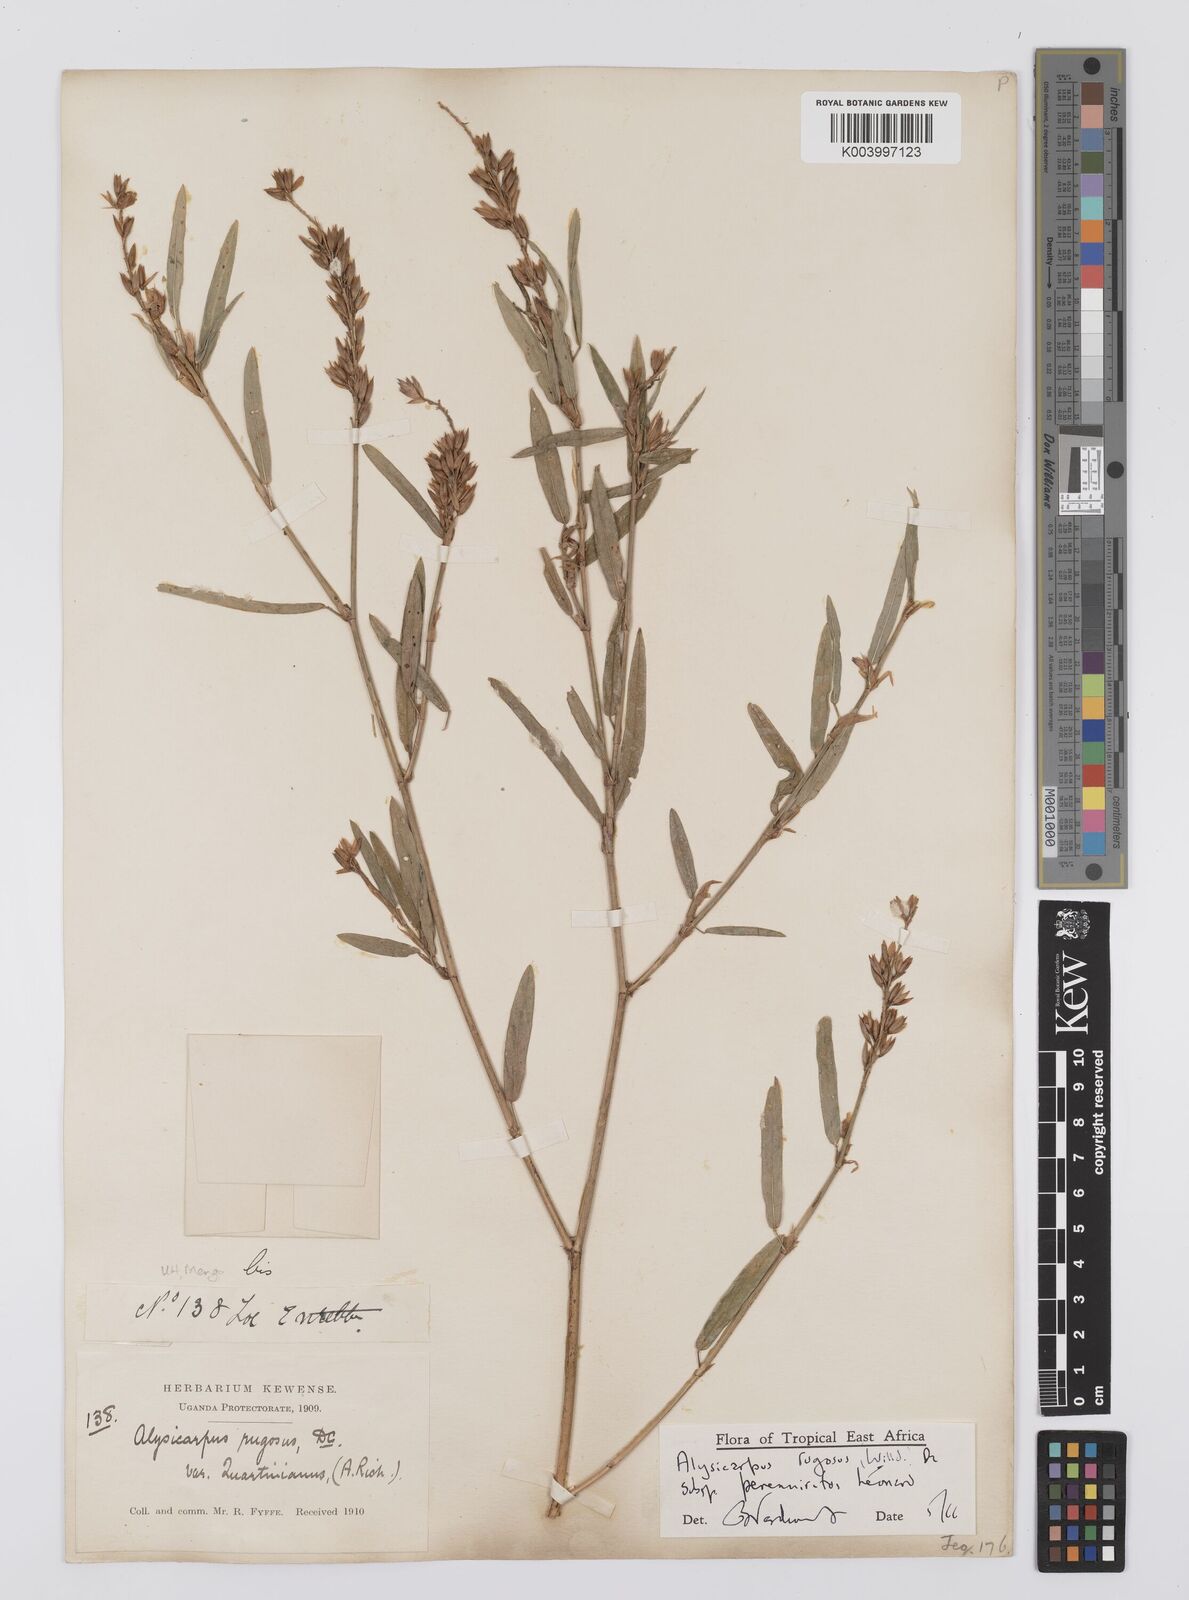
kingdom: Plantae
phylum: Tracheophyta
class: Magnoliopsida
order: Fabales
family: Fabaceae
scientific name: Fabaceae
